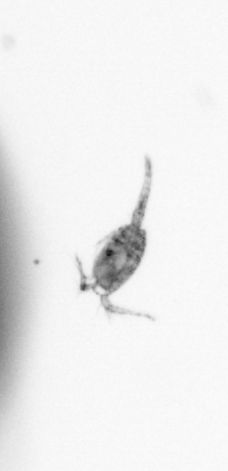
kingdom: Animalia
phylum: Arthropoda
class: Copepoda
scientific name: Copepoda
